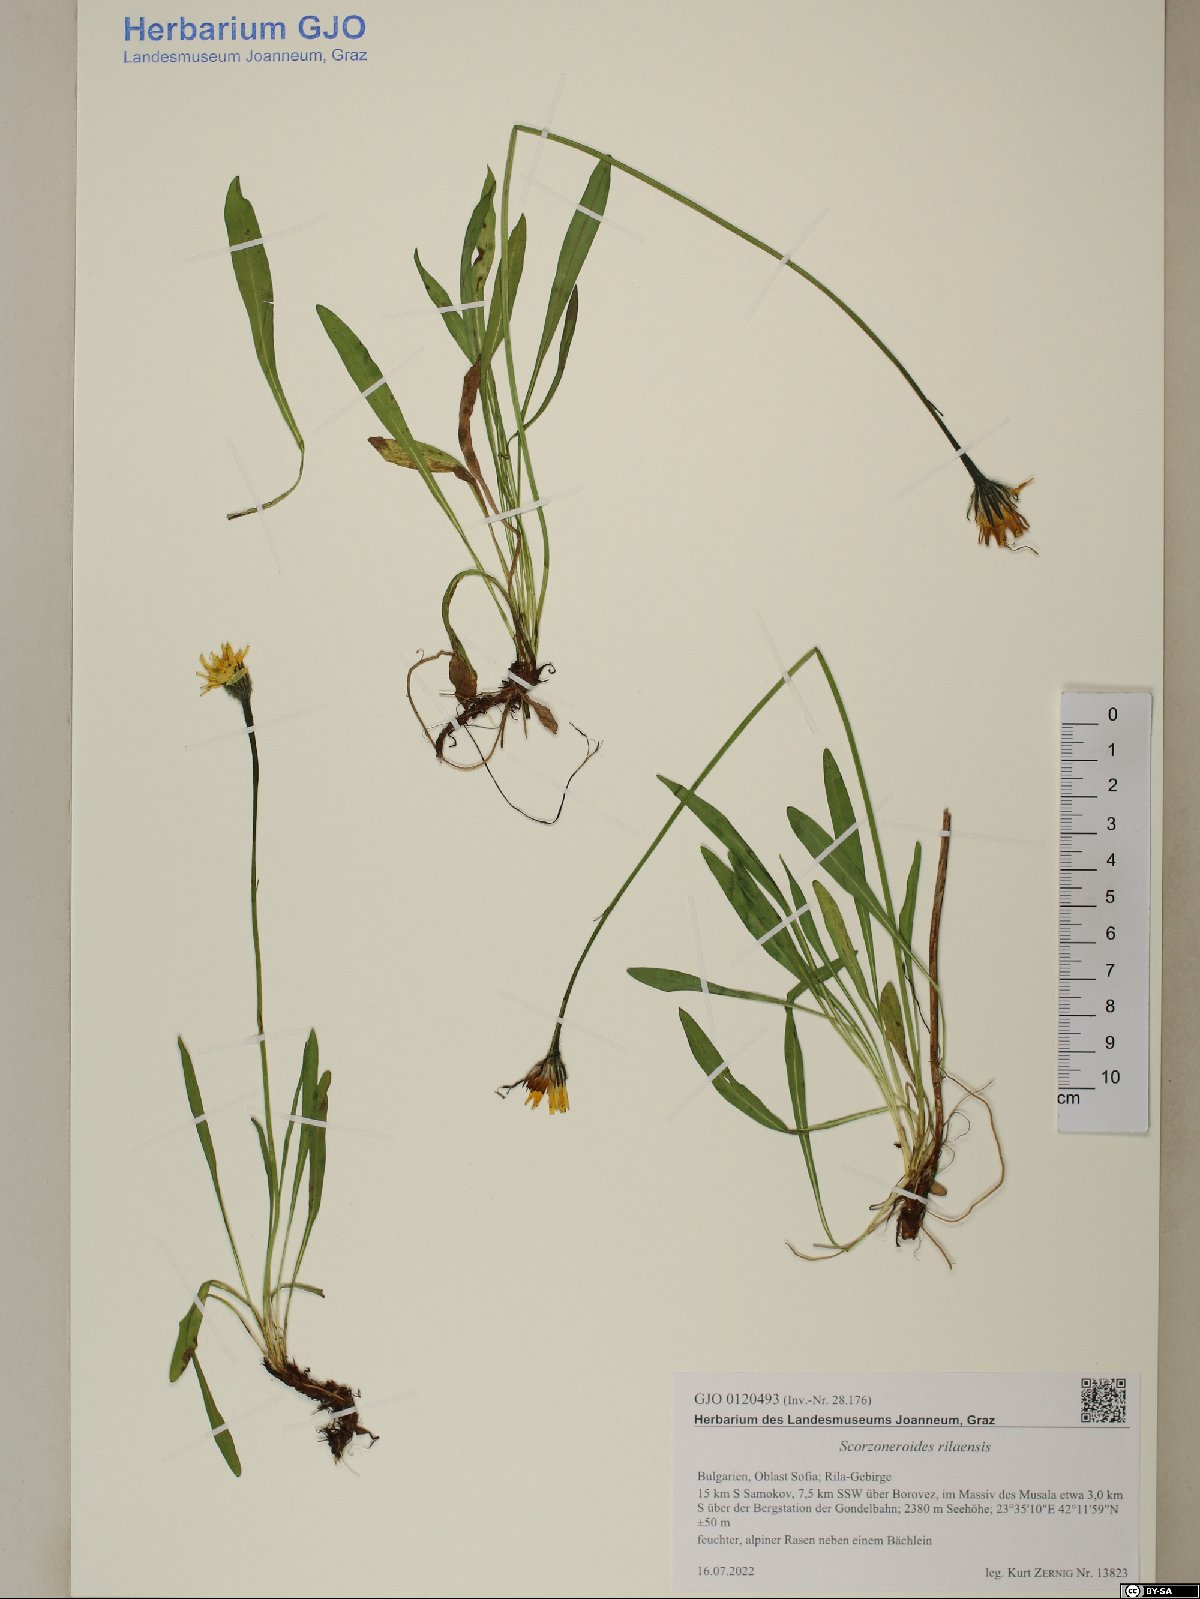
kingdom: Plantae
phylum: Tracheophyta
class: Magnoliopsida
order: Asterales
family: Asteraceae
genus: Scorzoneroides
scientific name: Scorzoneroides rilaensis
